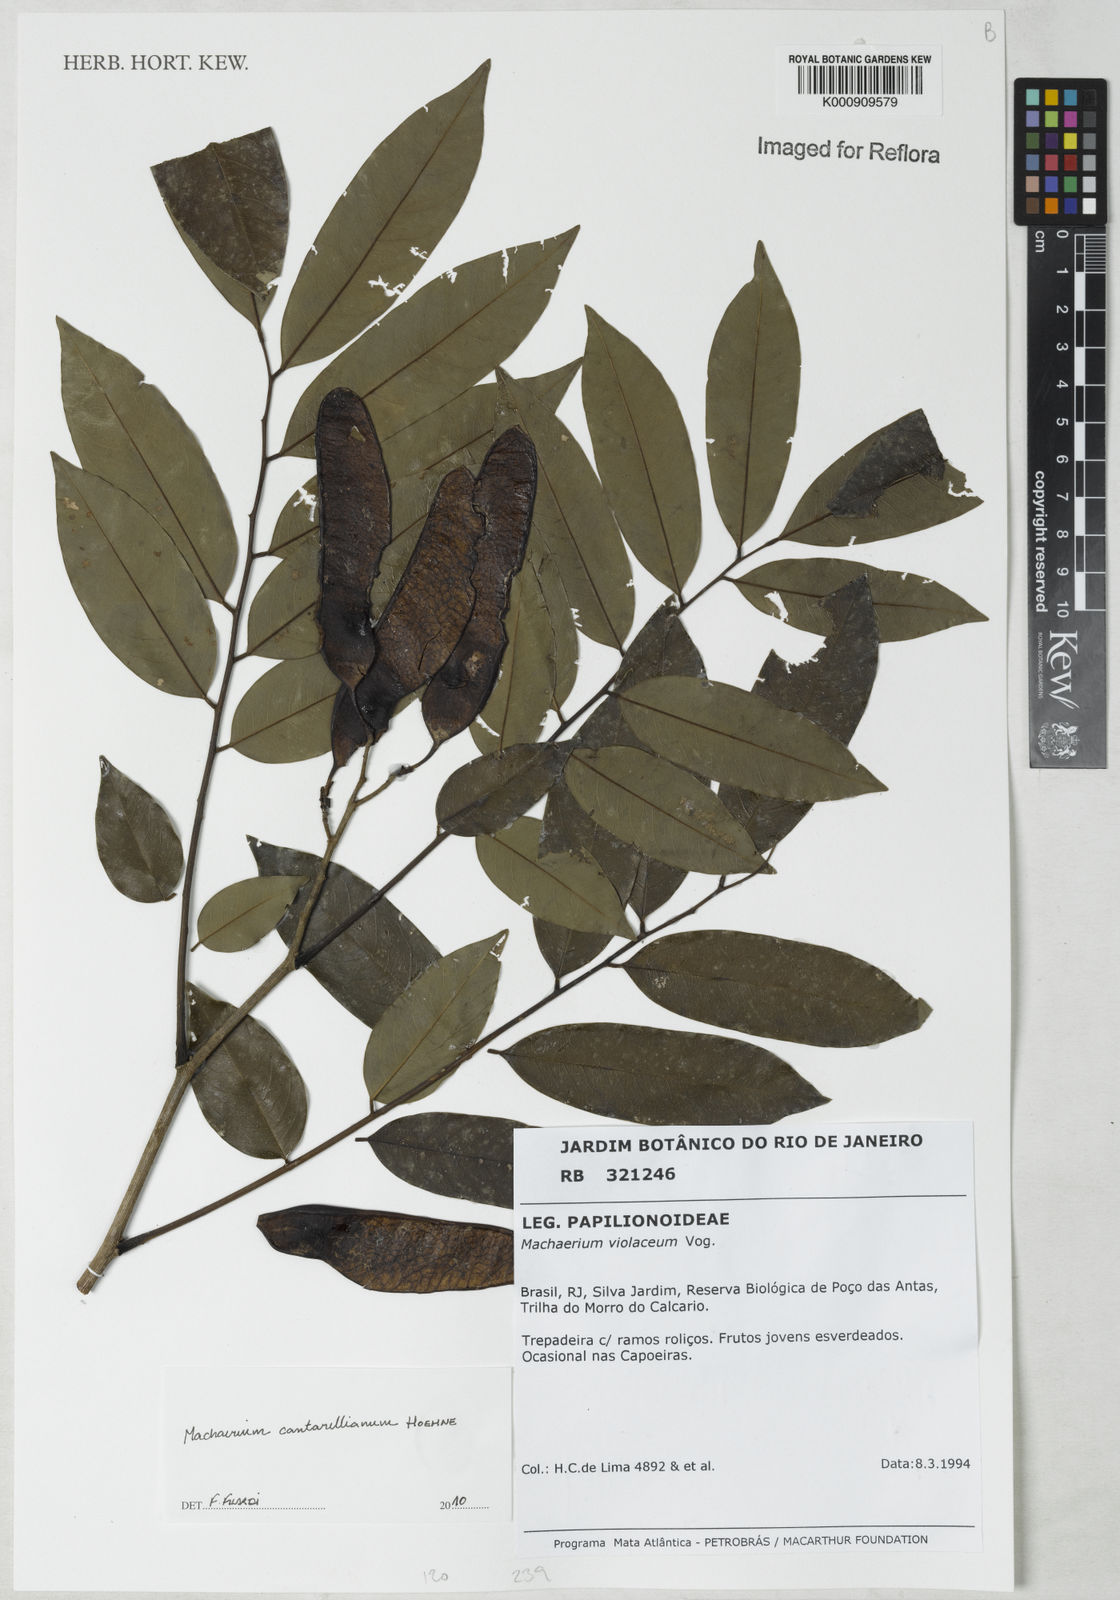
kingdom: Plantae
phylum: Tracheophyta
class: Magnoliopsida
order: Fabales
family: Fabaceae
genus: Machaerium
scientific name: Machaerium cantarellianum
